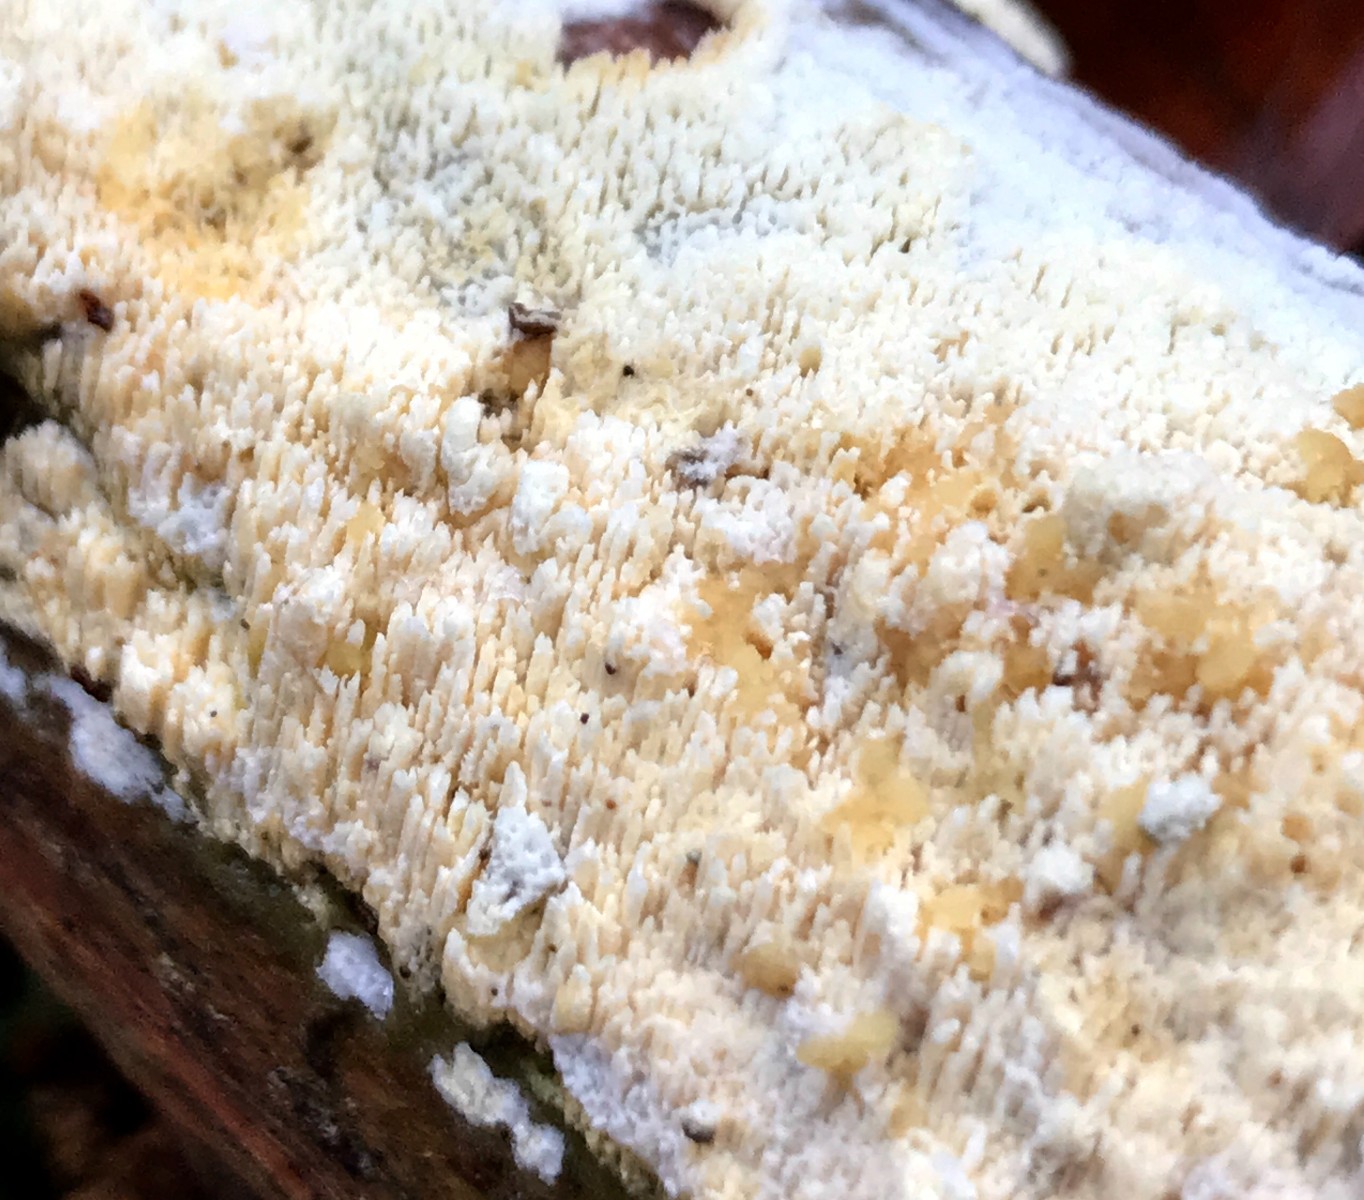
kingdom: Fungi
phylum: Basidiomycota
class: Agaricomycetes
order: Hymenochaetales
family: Schizoporaceae
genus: Xylodon
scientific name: Xylodon
